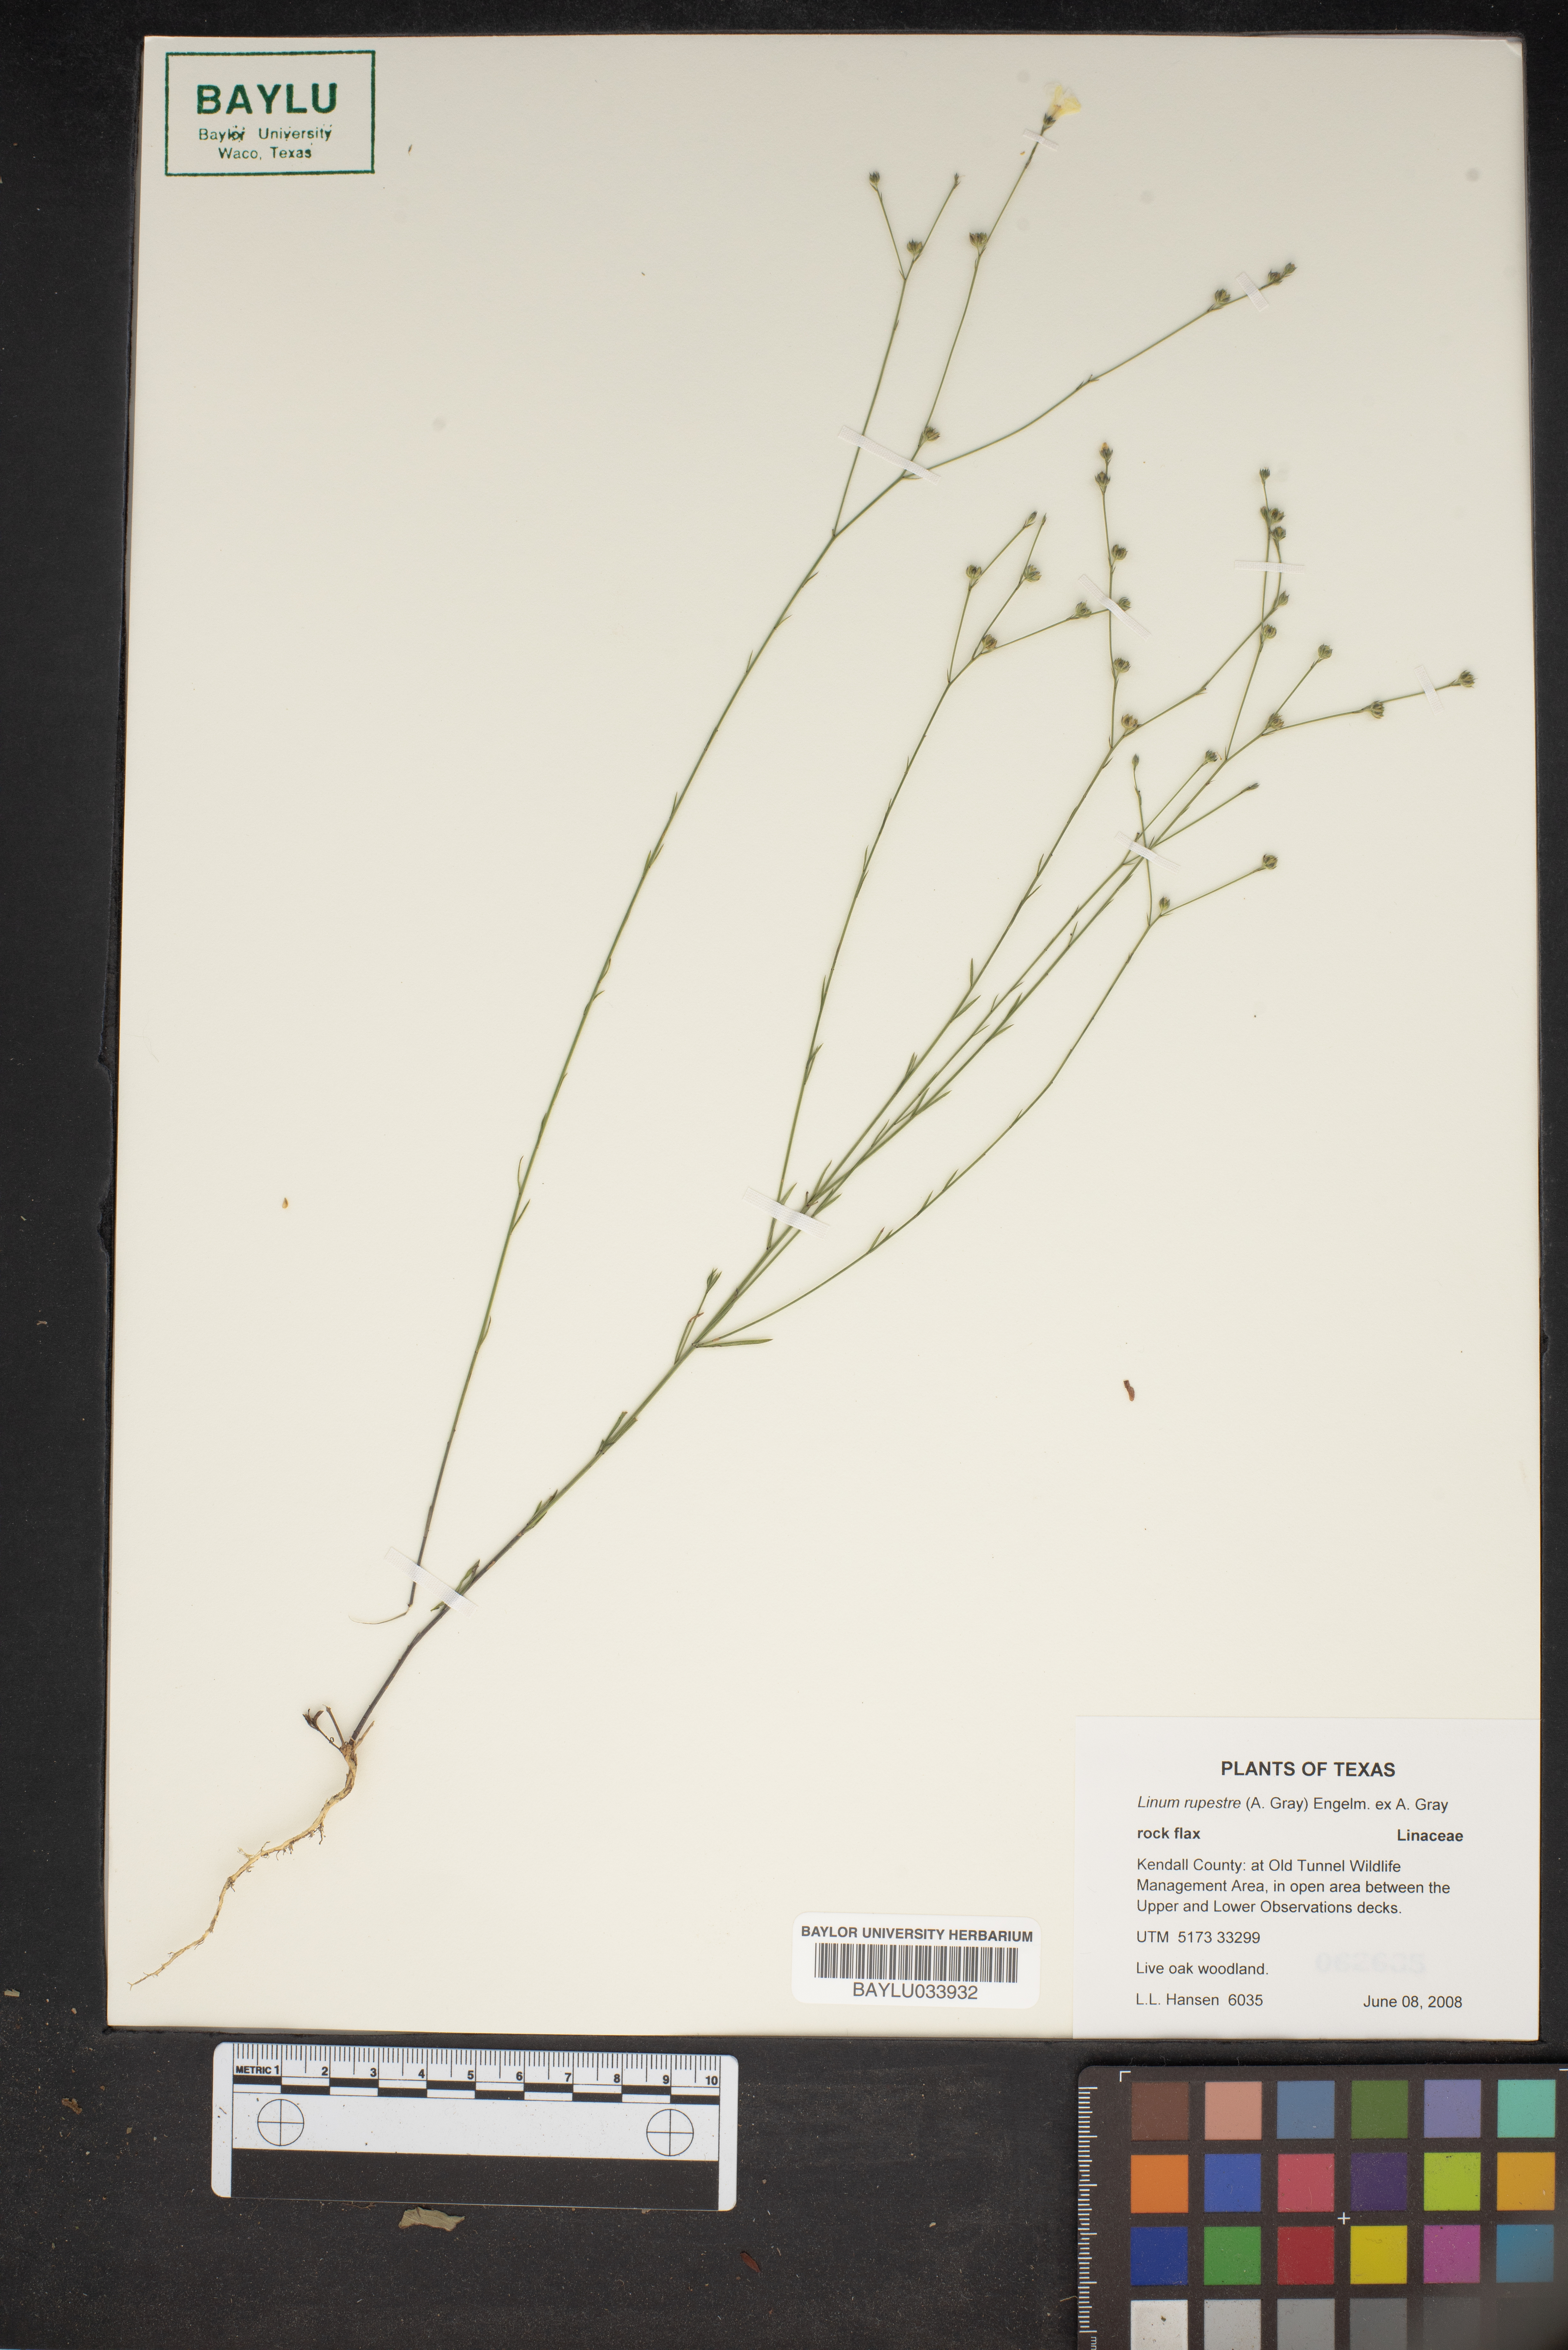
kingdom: Plantae
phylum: Tracheophyta
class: Magnoliopsida
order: Malpighiales
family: Linaceae
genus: Linum
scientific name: Linum rupestre
